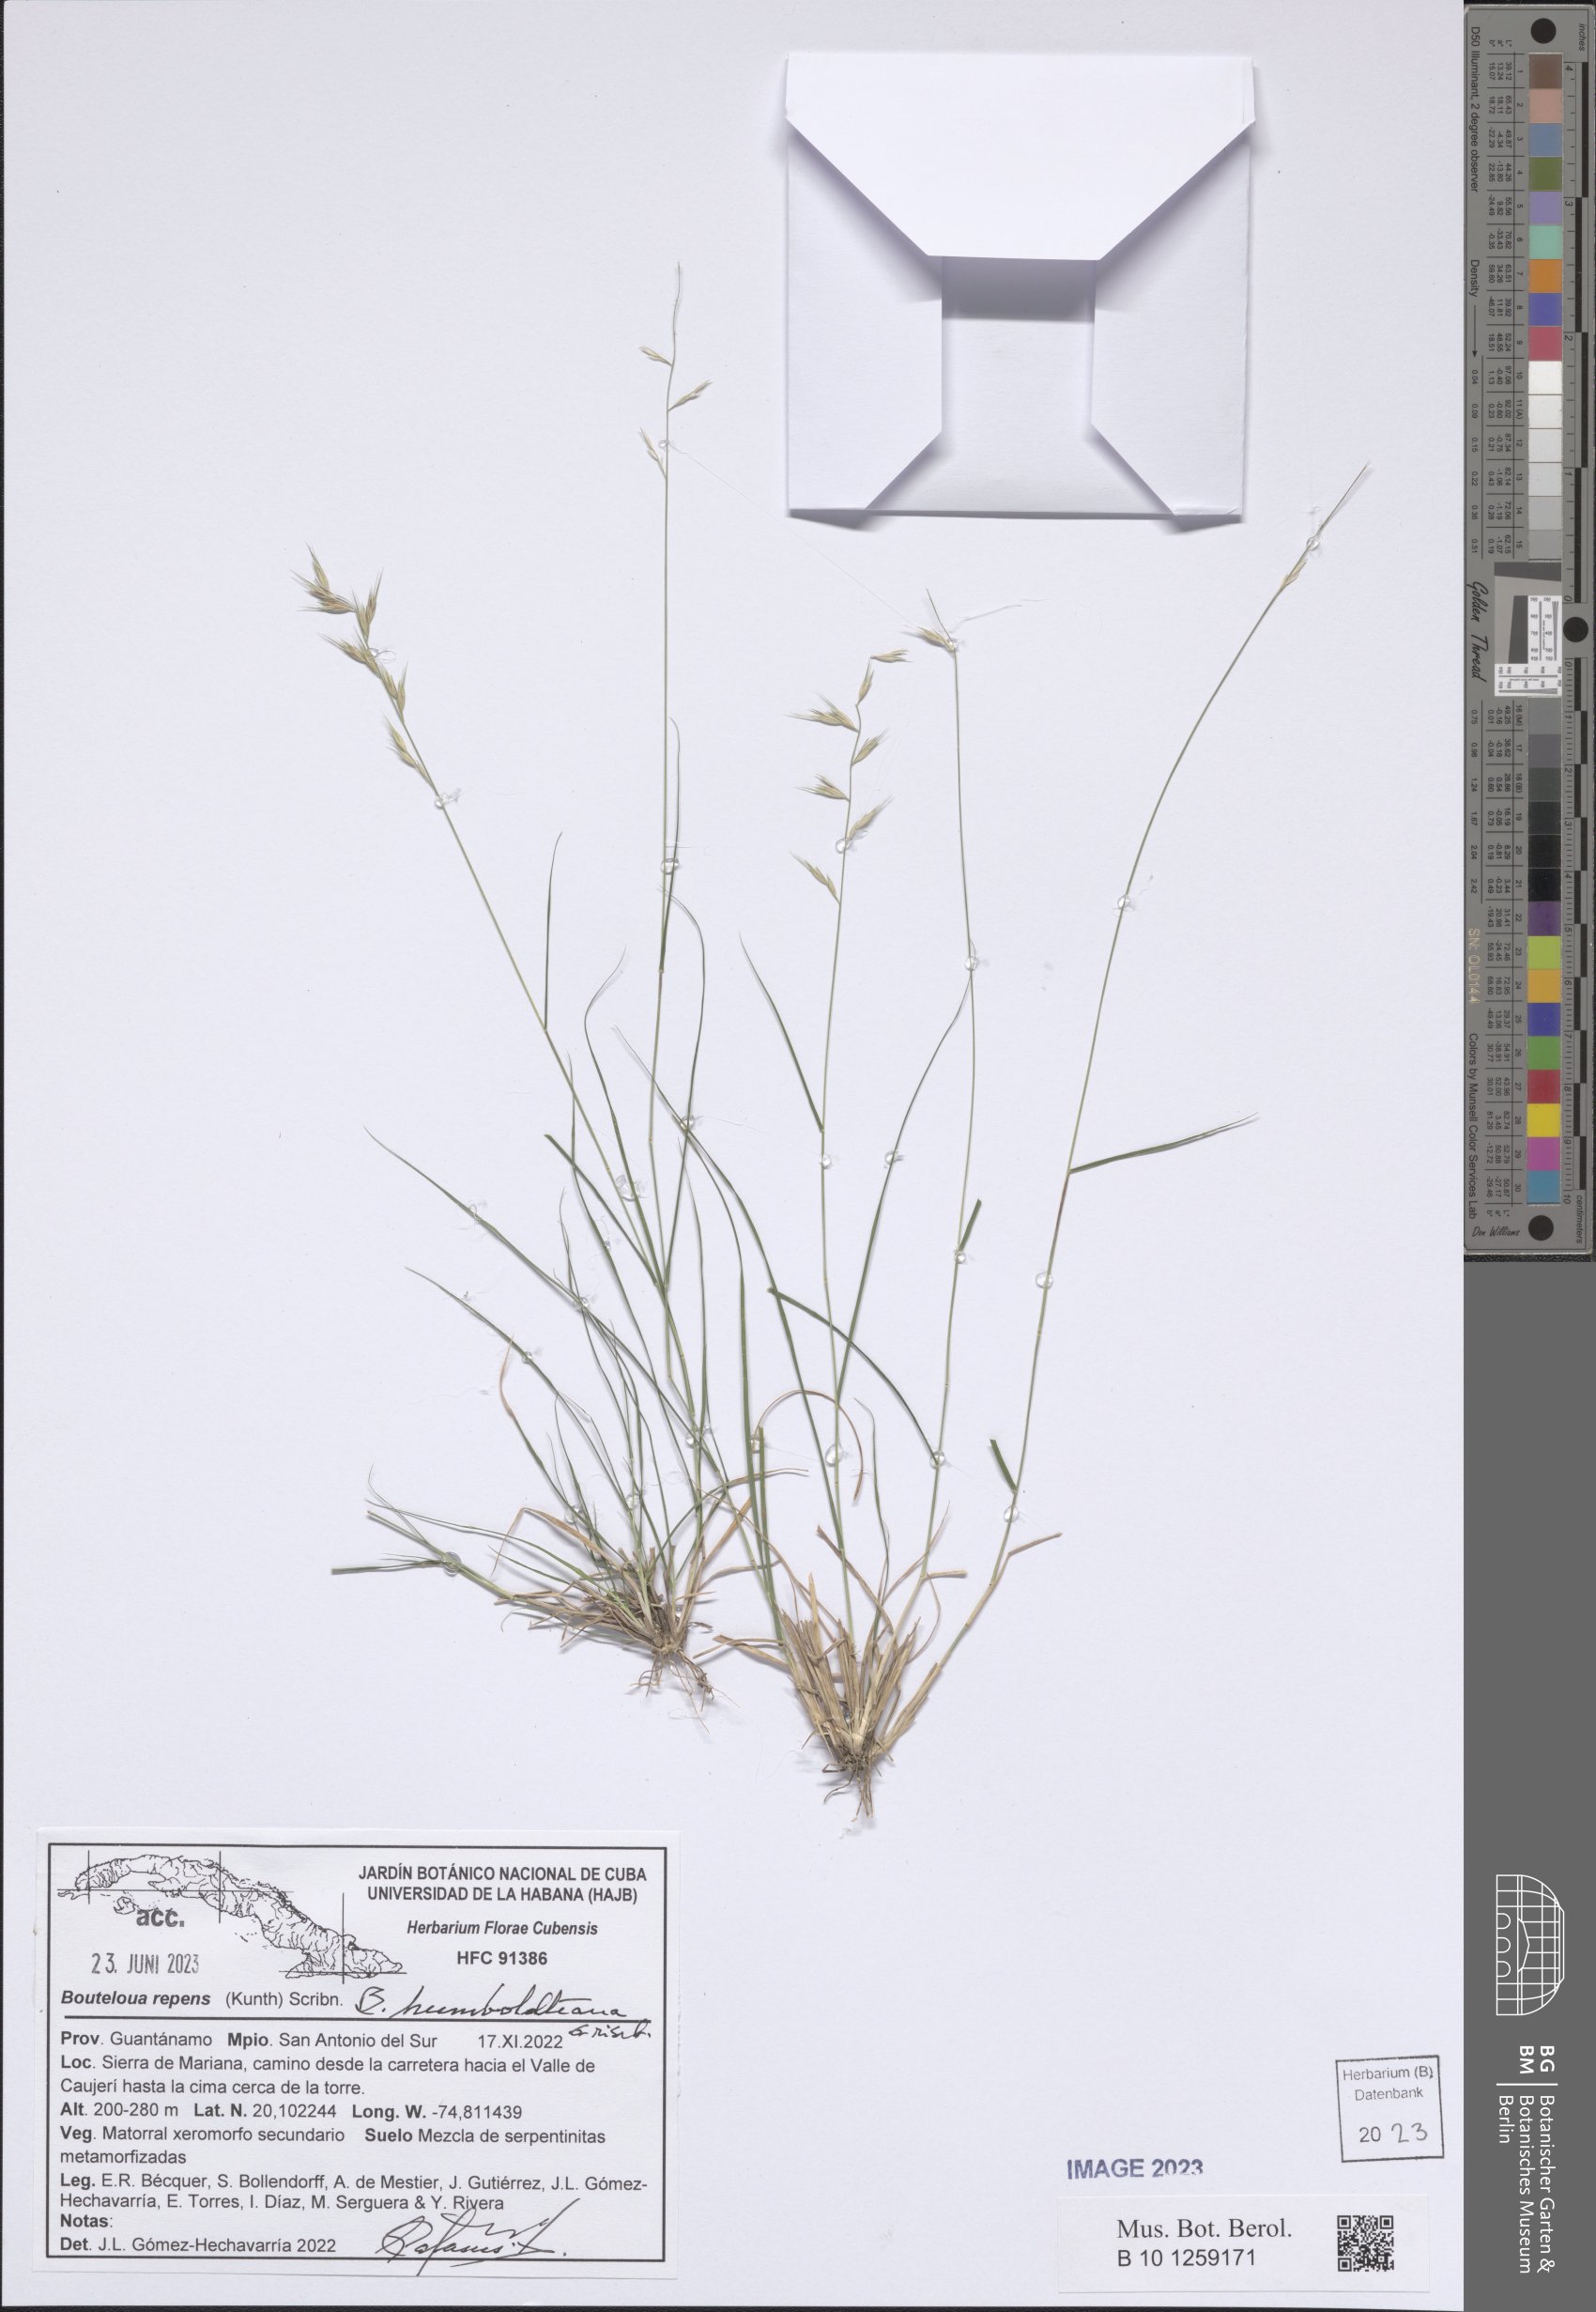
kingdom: Plantae
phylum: Tracheophyta
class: Liliopsida
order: Poales
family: Poaceae
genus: Bouteloua
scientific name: Bouteloua repens
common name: Slender grama
